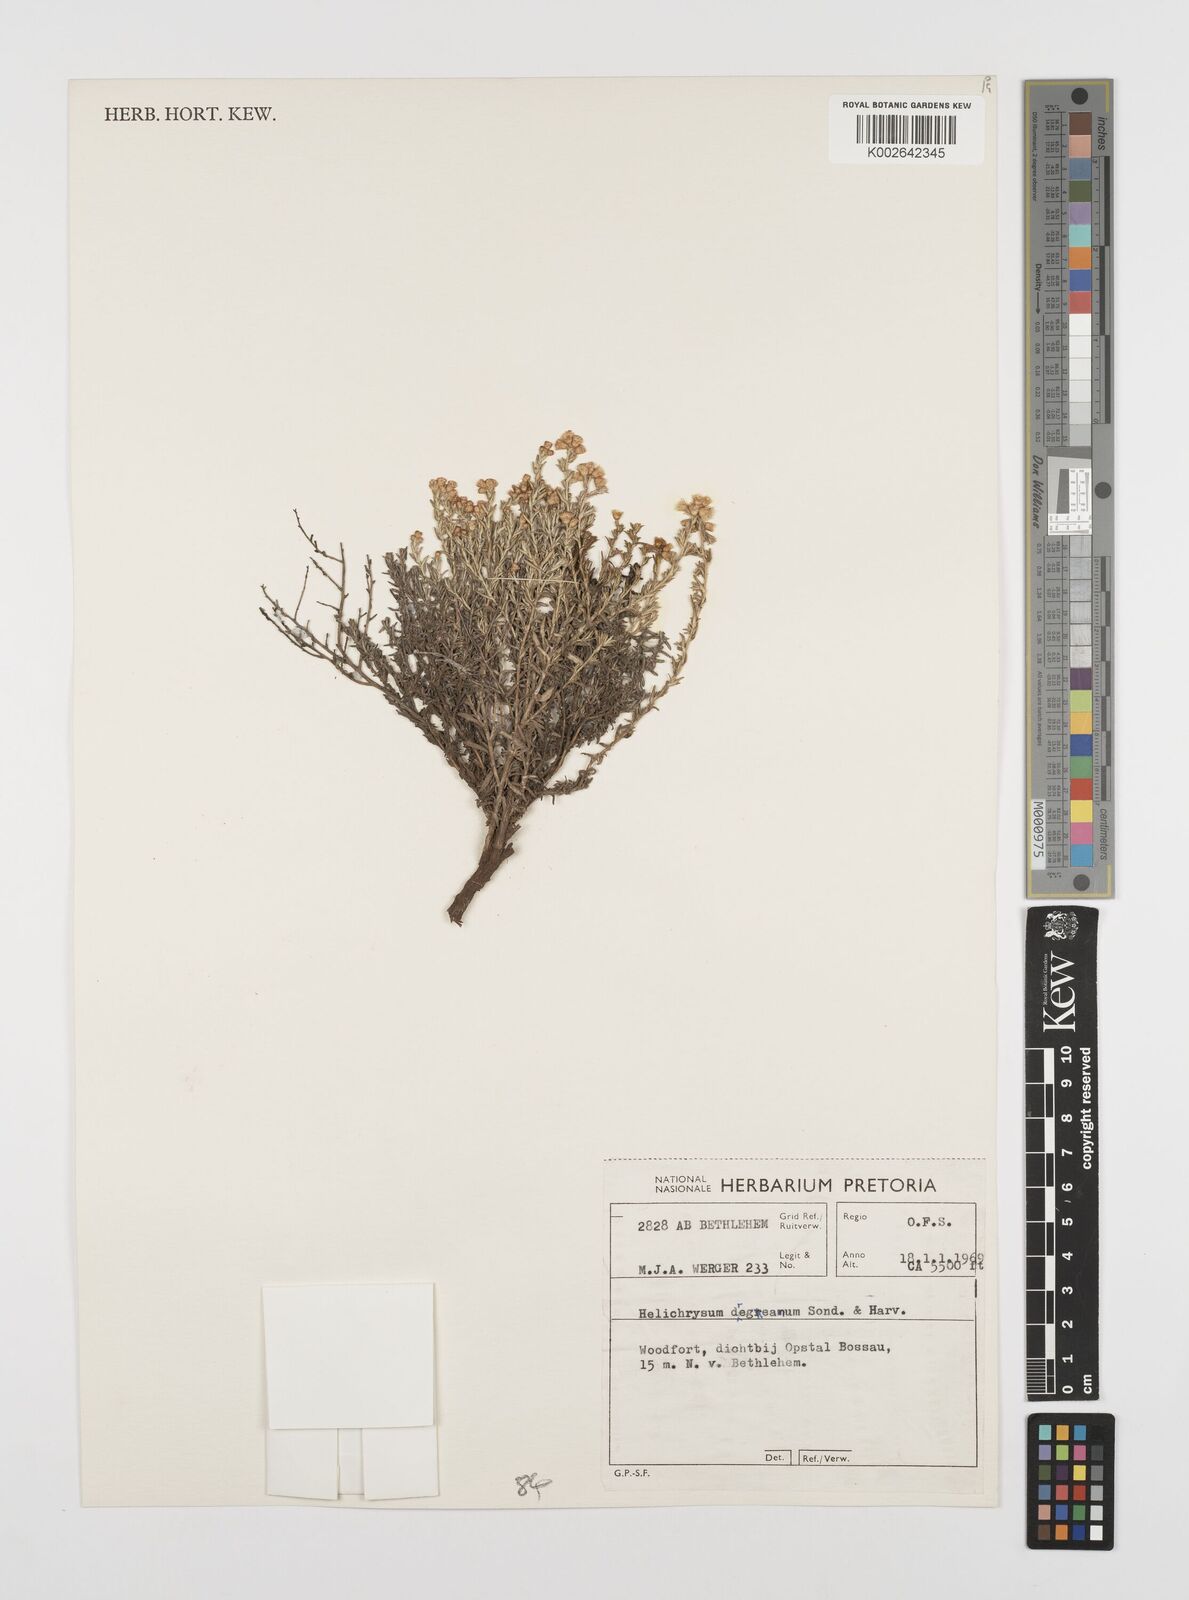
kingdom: Plantae
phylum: Tracheophyta
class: Magnoliopsida
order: Asterales
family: Asteraceae
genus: Helichrysum
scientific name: Helichrysum dregeanum
